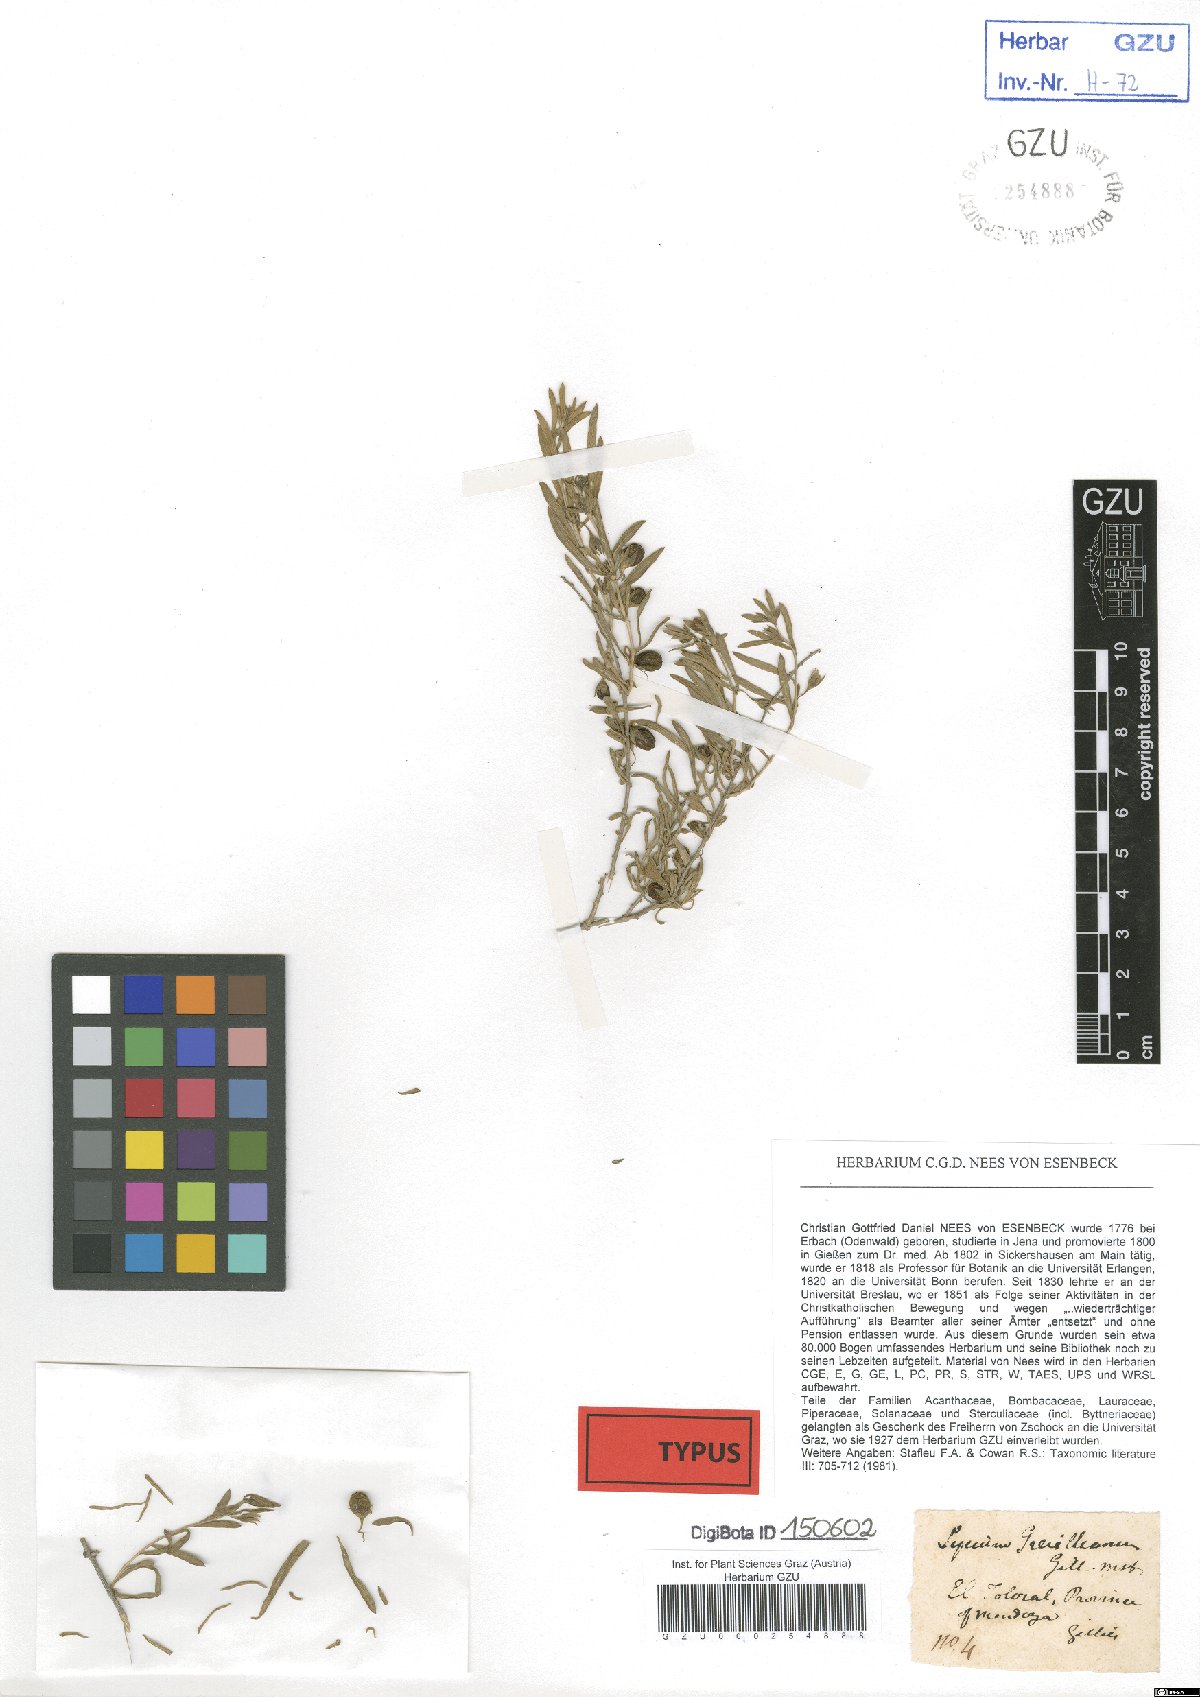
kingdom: Plantae
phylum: Tracheophyta
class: Magnoliopsida
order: Solanales
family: Solanaceae
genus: Lycium
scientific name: Lycium chilense
